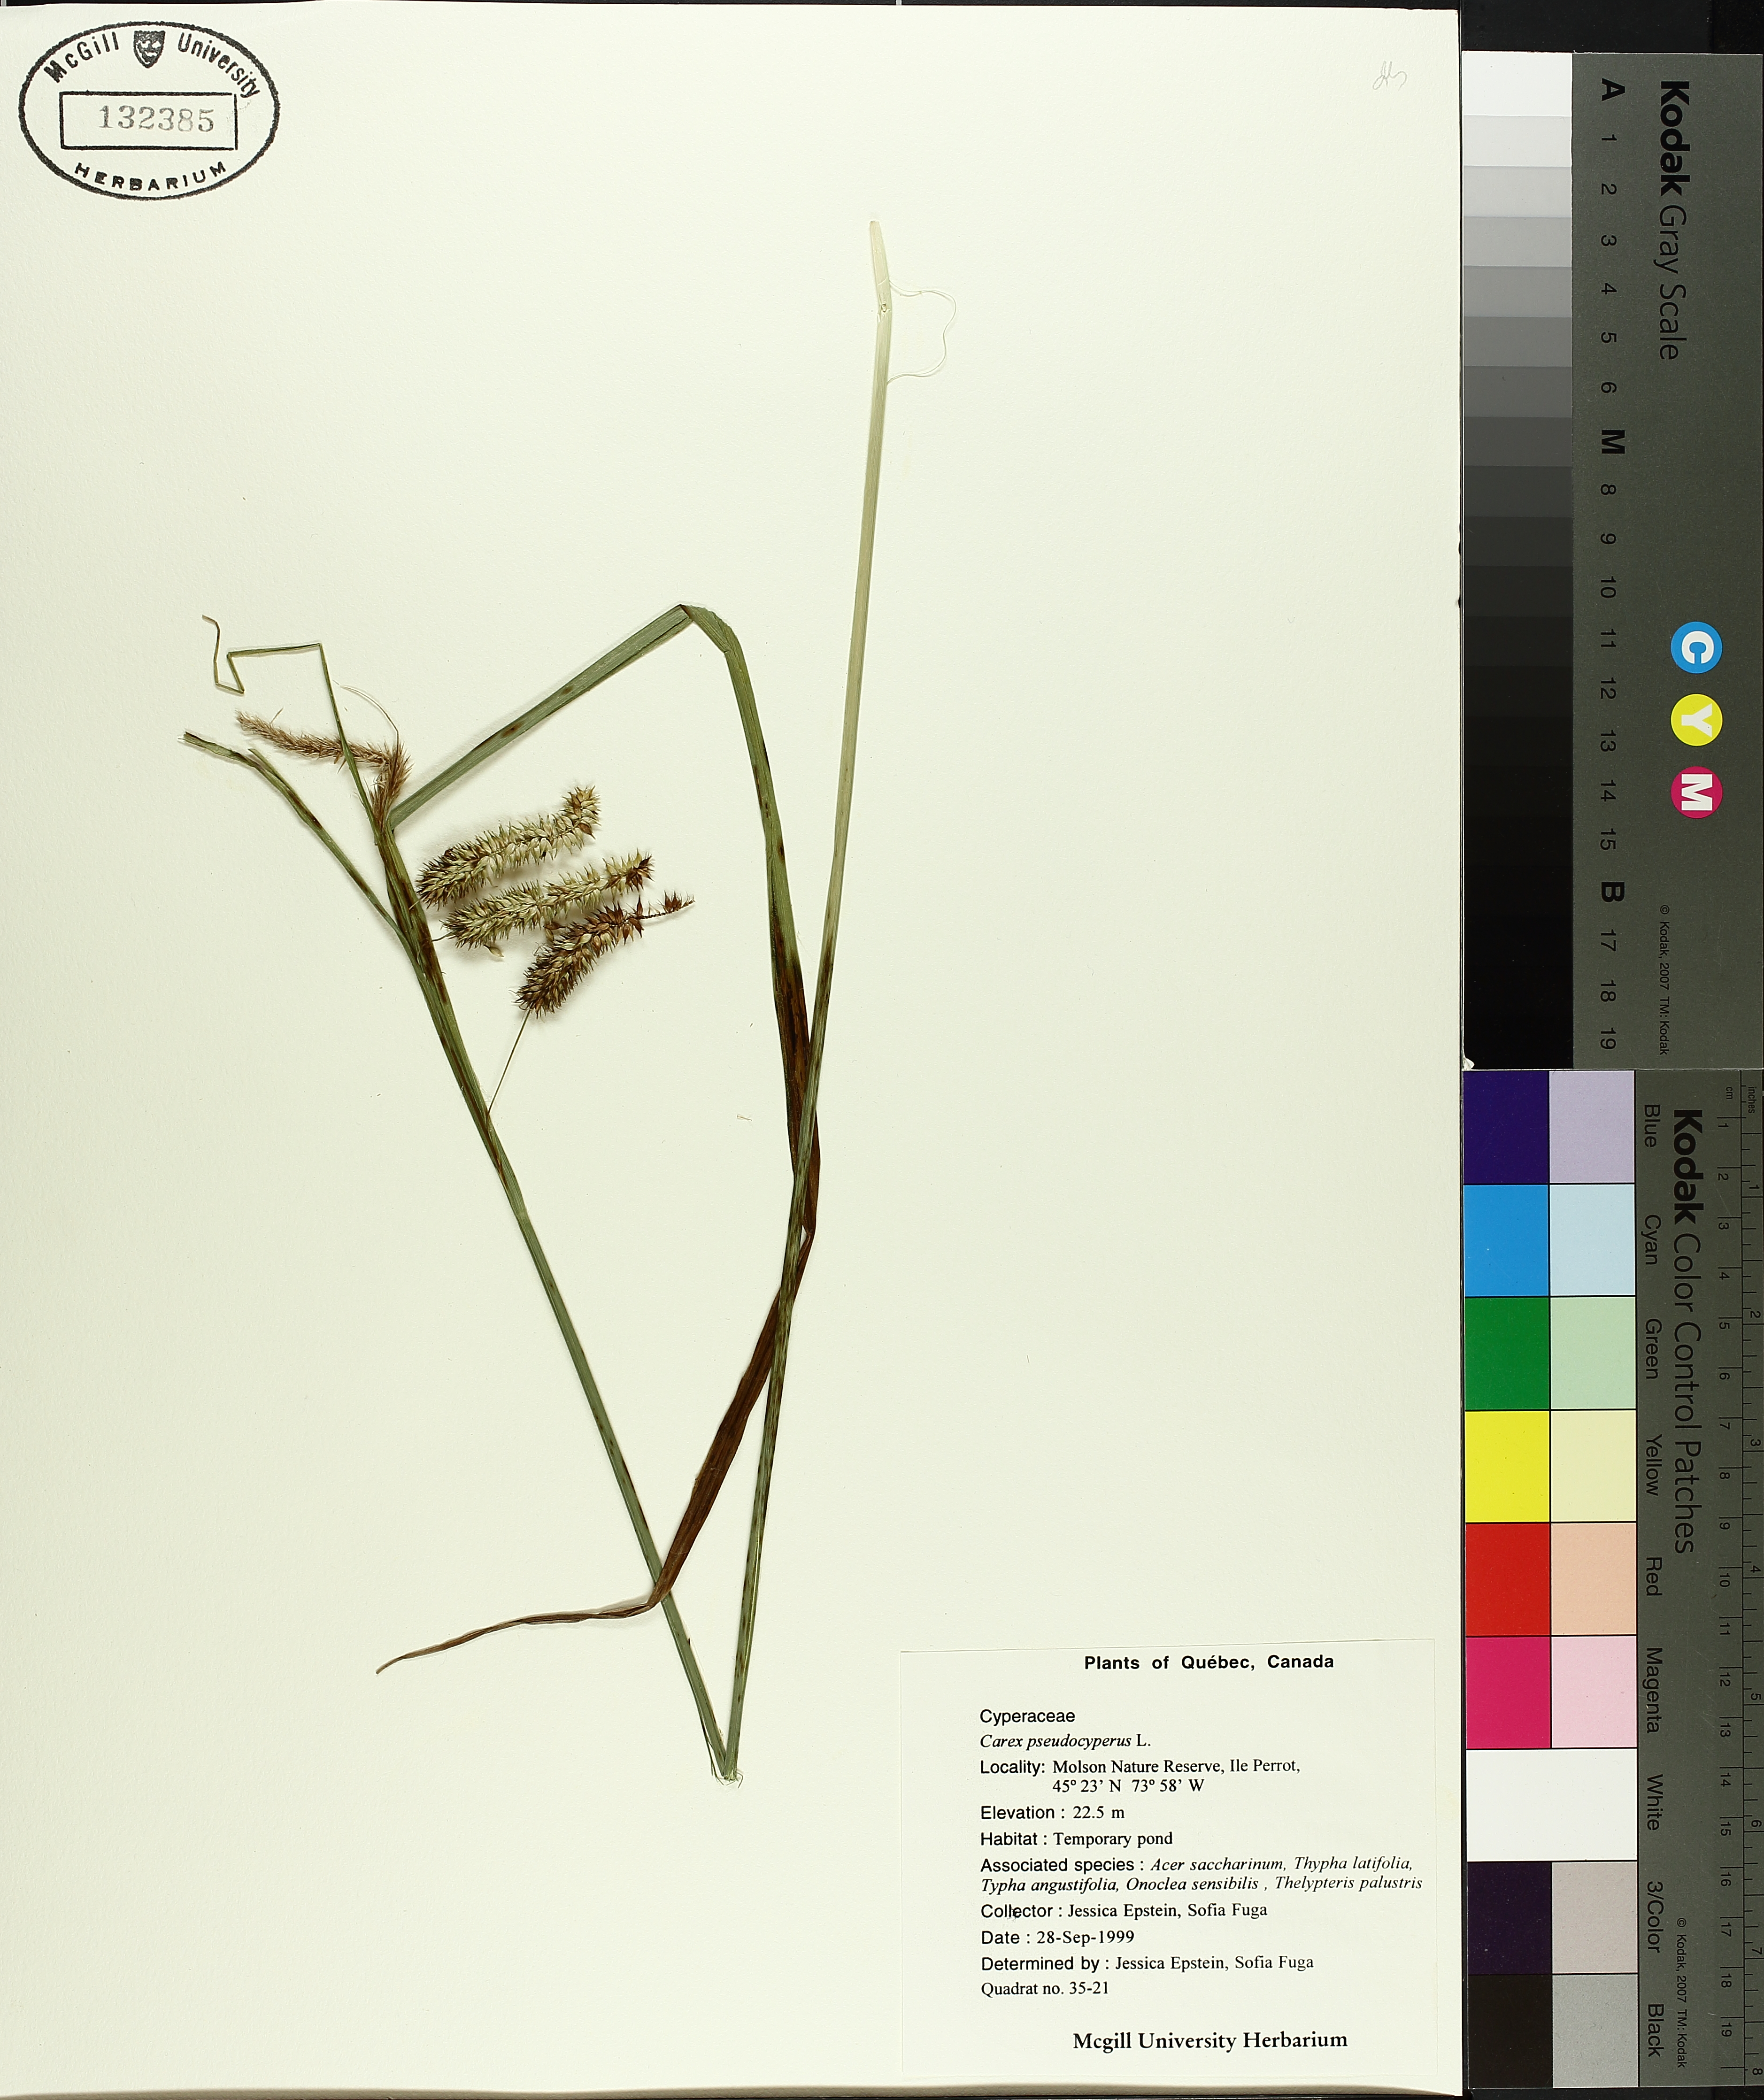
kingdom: Plantae
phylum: Tracheophyta
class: Liliopsida
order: Poales
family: Cyperaceae
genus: Carex
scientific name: Carex pseudocyperus
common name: Cyperus sedge
